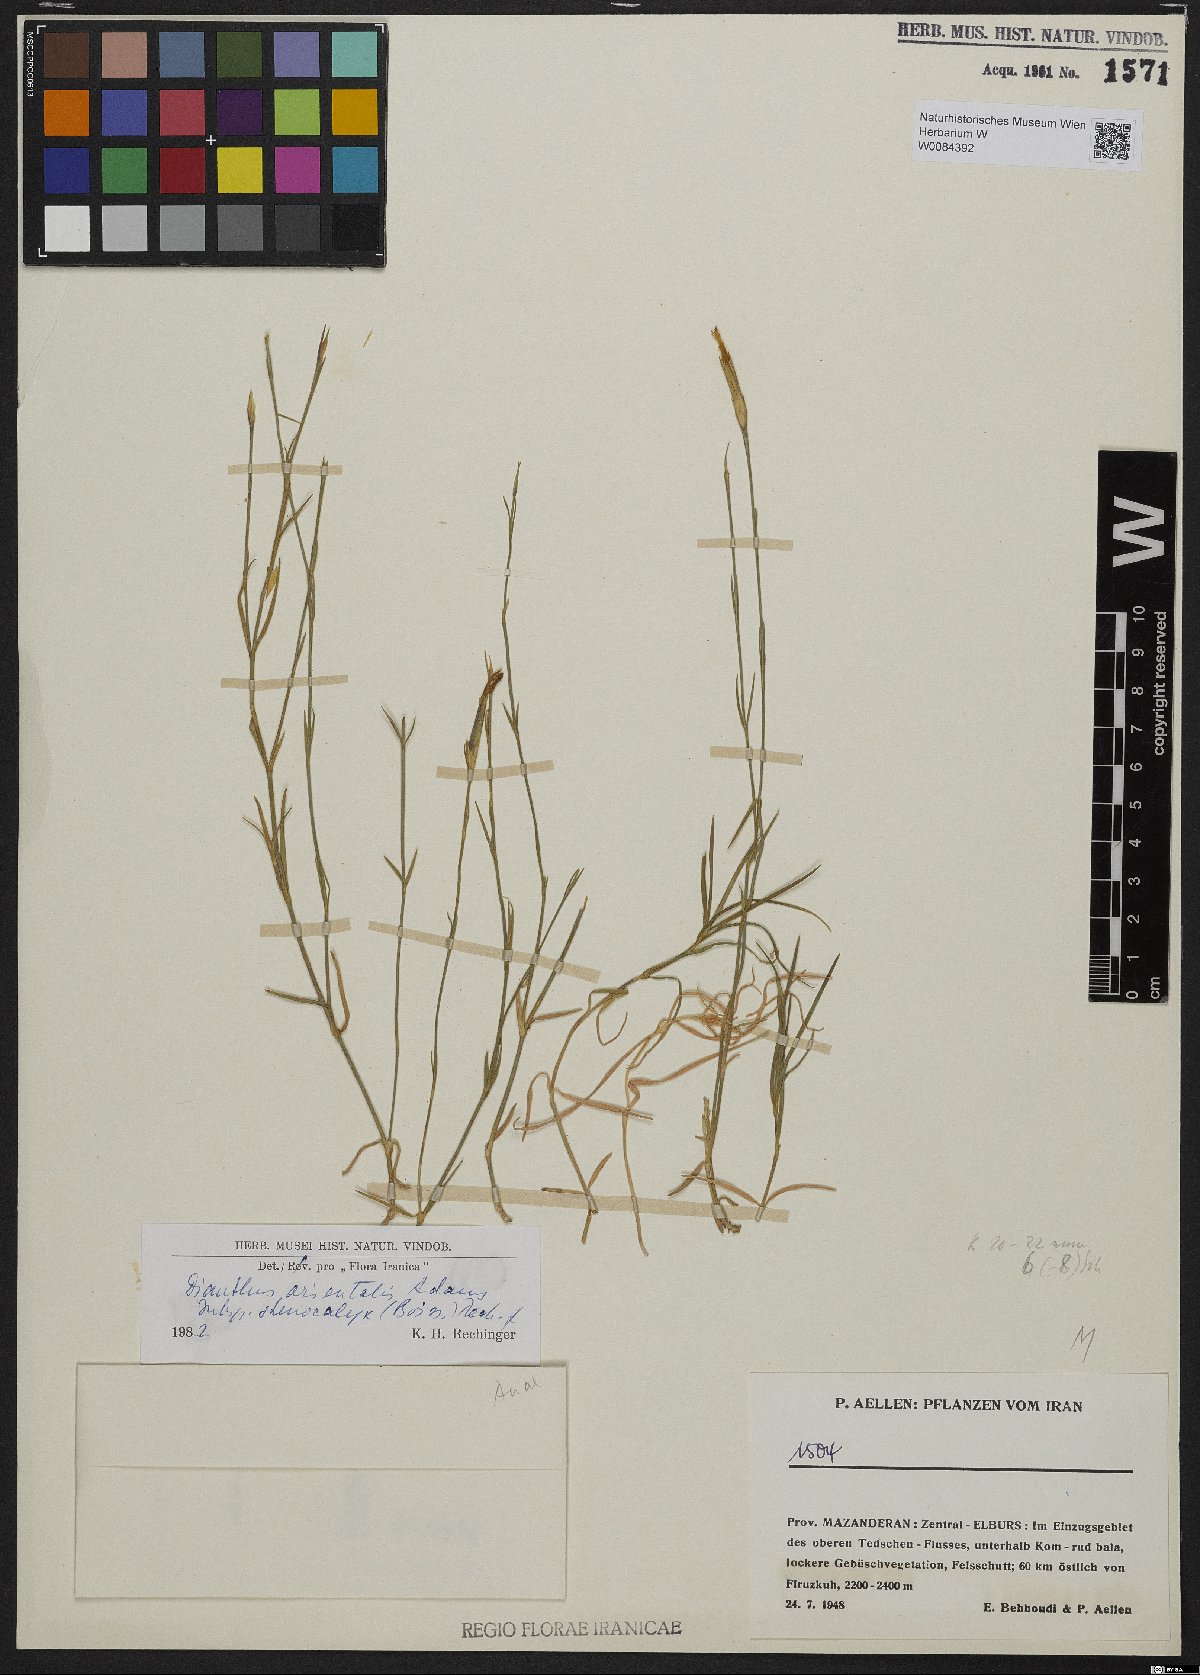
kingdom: Plantae
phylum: Tracheophyta
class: Magnoliopsida
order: Caryophyllales
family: Caryophyllaceae
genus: Dianthus
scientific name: Dianthus orientalis
